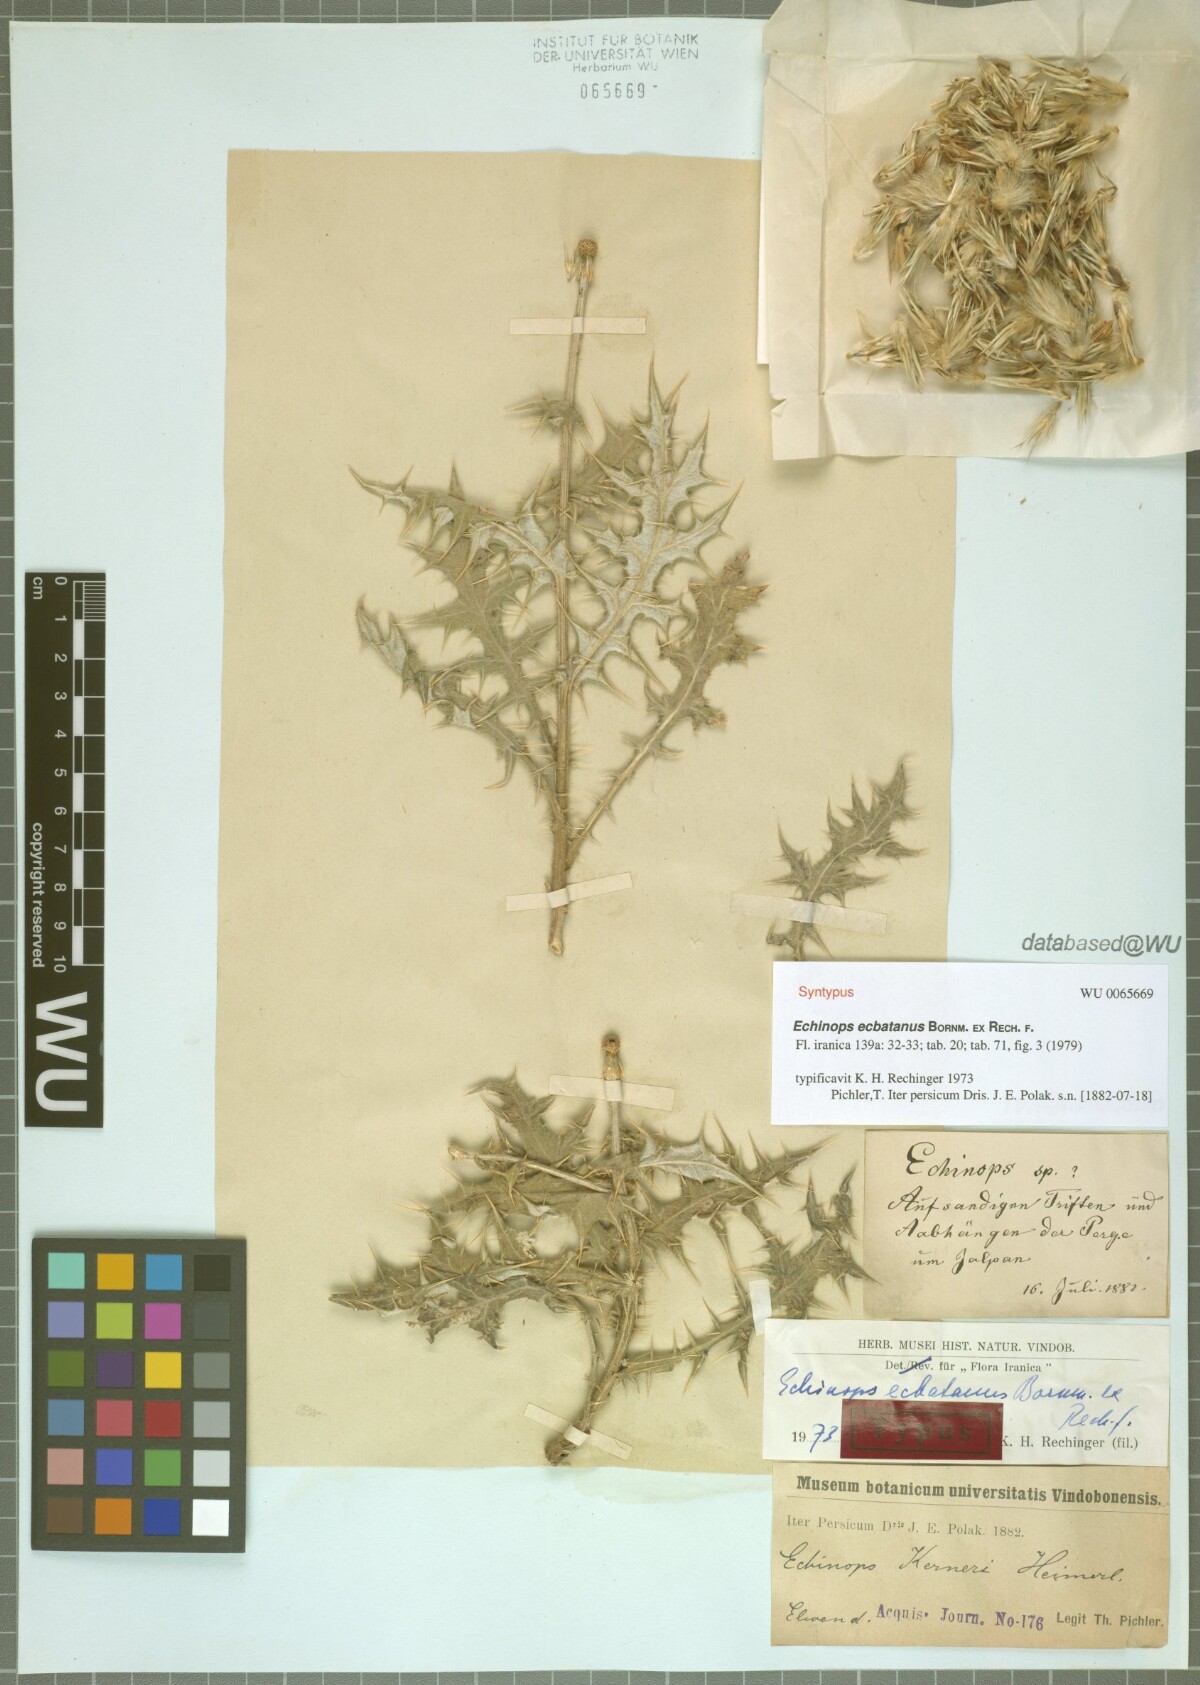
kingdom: Plantae
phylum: Tracheophyta
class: Magnoliopsida
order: Asterales
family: Asteraceae
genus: Echinops
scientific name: Echinops ecbatanus
